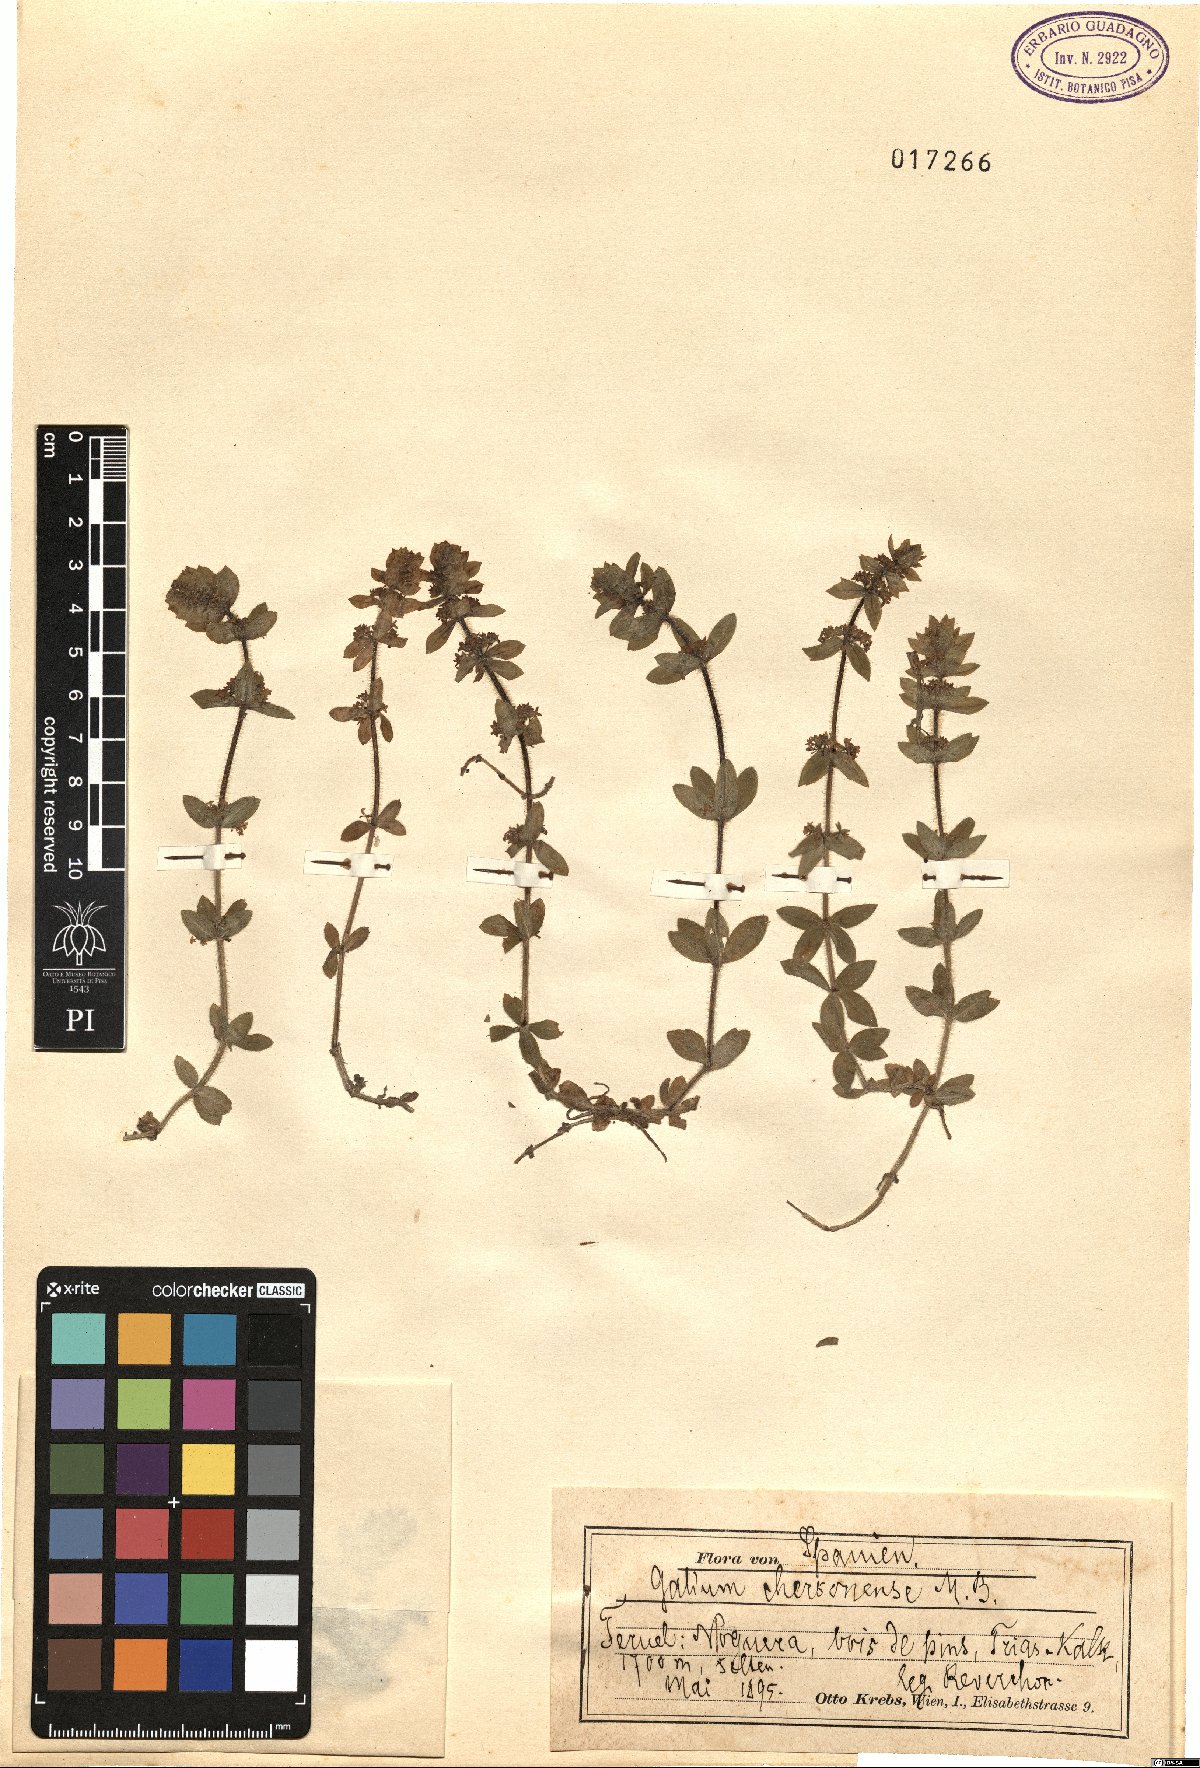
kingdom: Plantae
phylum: Tracheophyta
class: Magnoliopsida
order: Gentianales
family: Rubiaceae
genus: Cruciata
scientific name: Cruciata taurica
